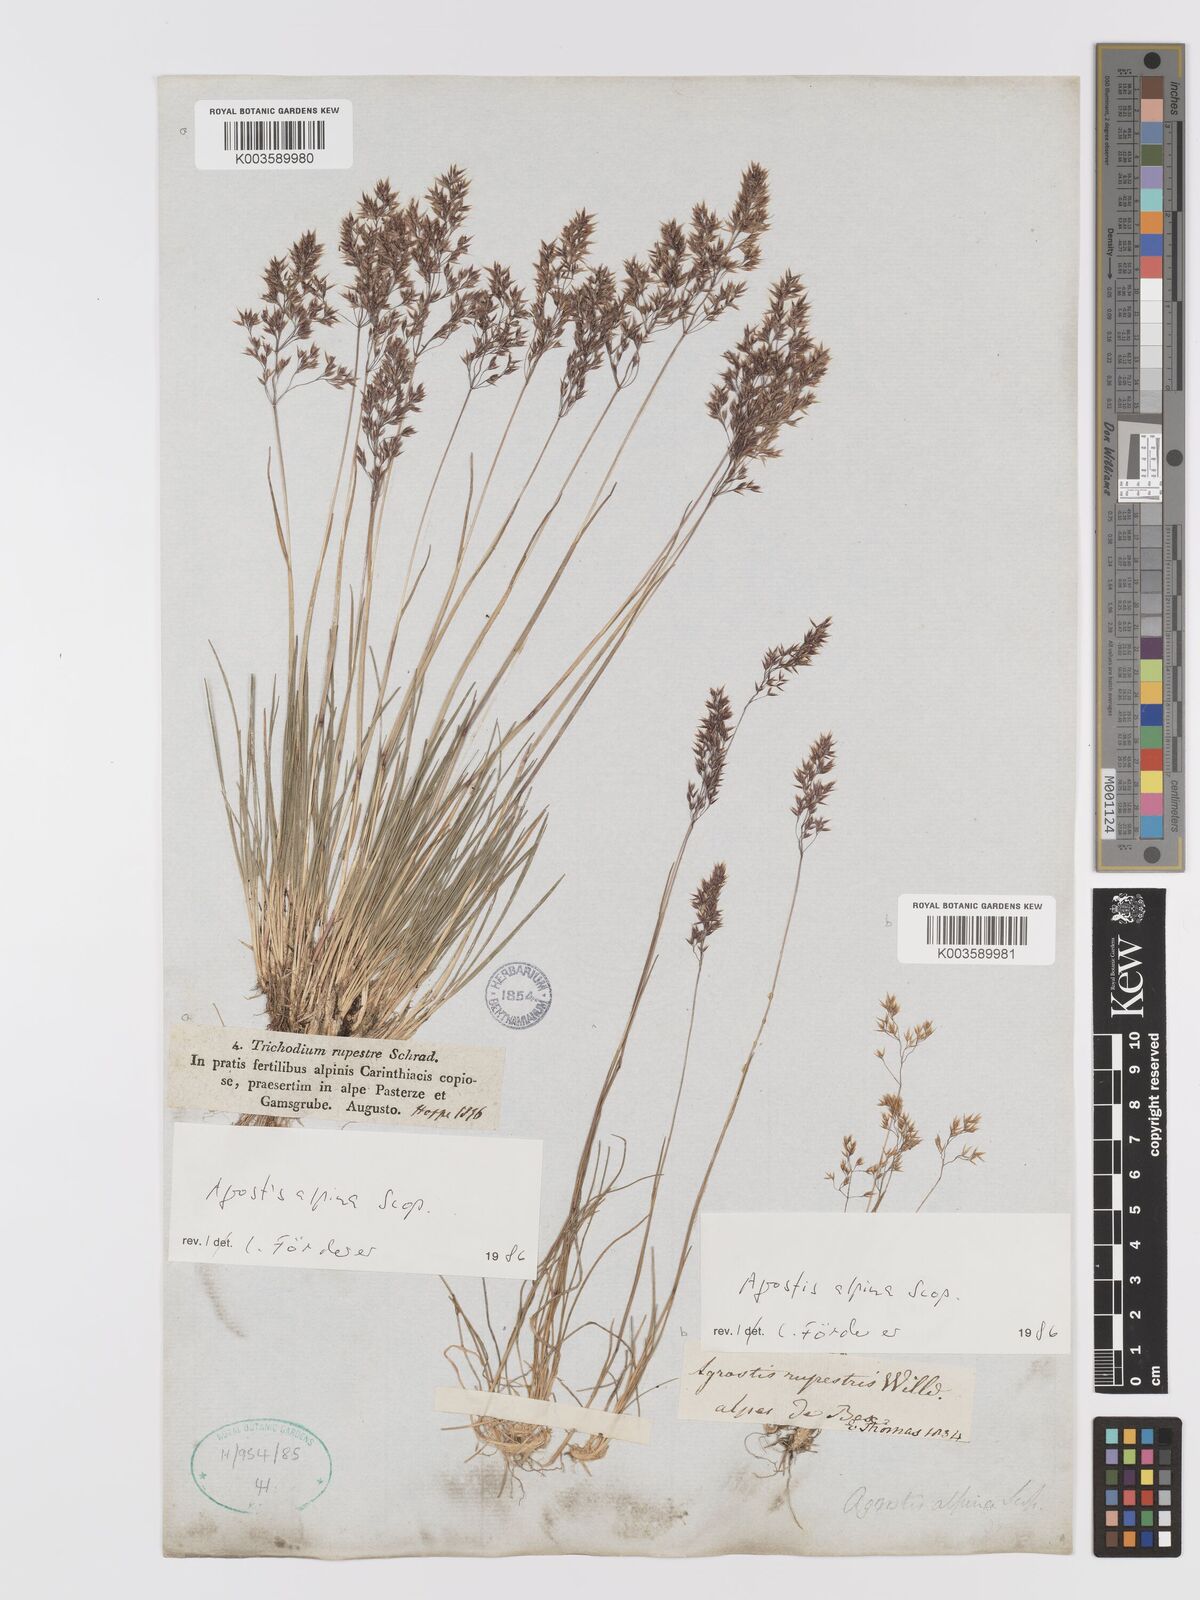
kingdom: Plantae
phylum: Tracheophyta
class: Liliopsida
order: Poales
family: Poaceae
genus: Alpagrostis
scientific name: Alpagrostis alpina
